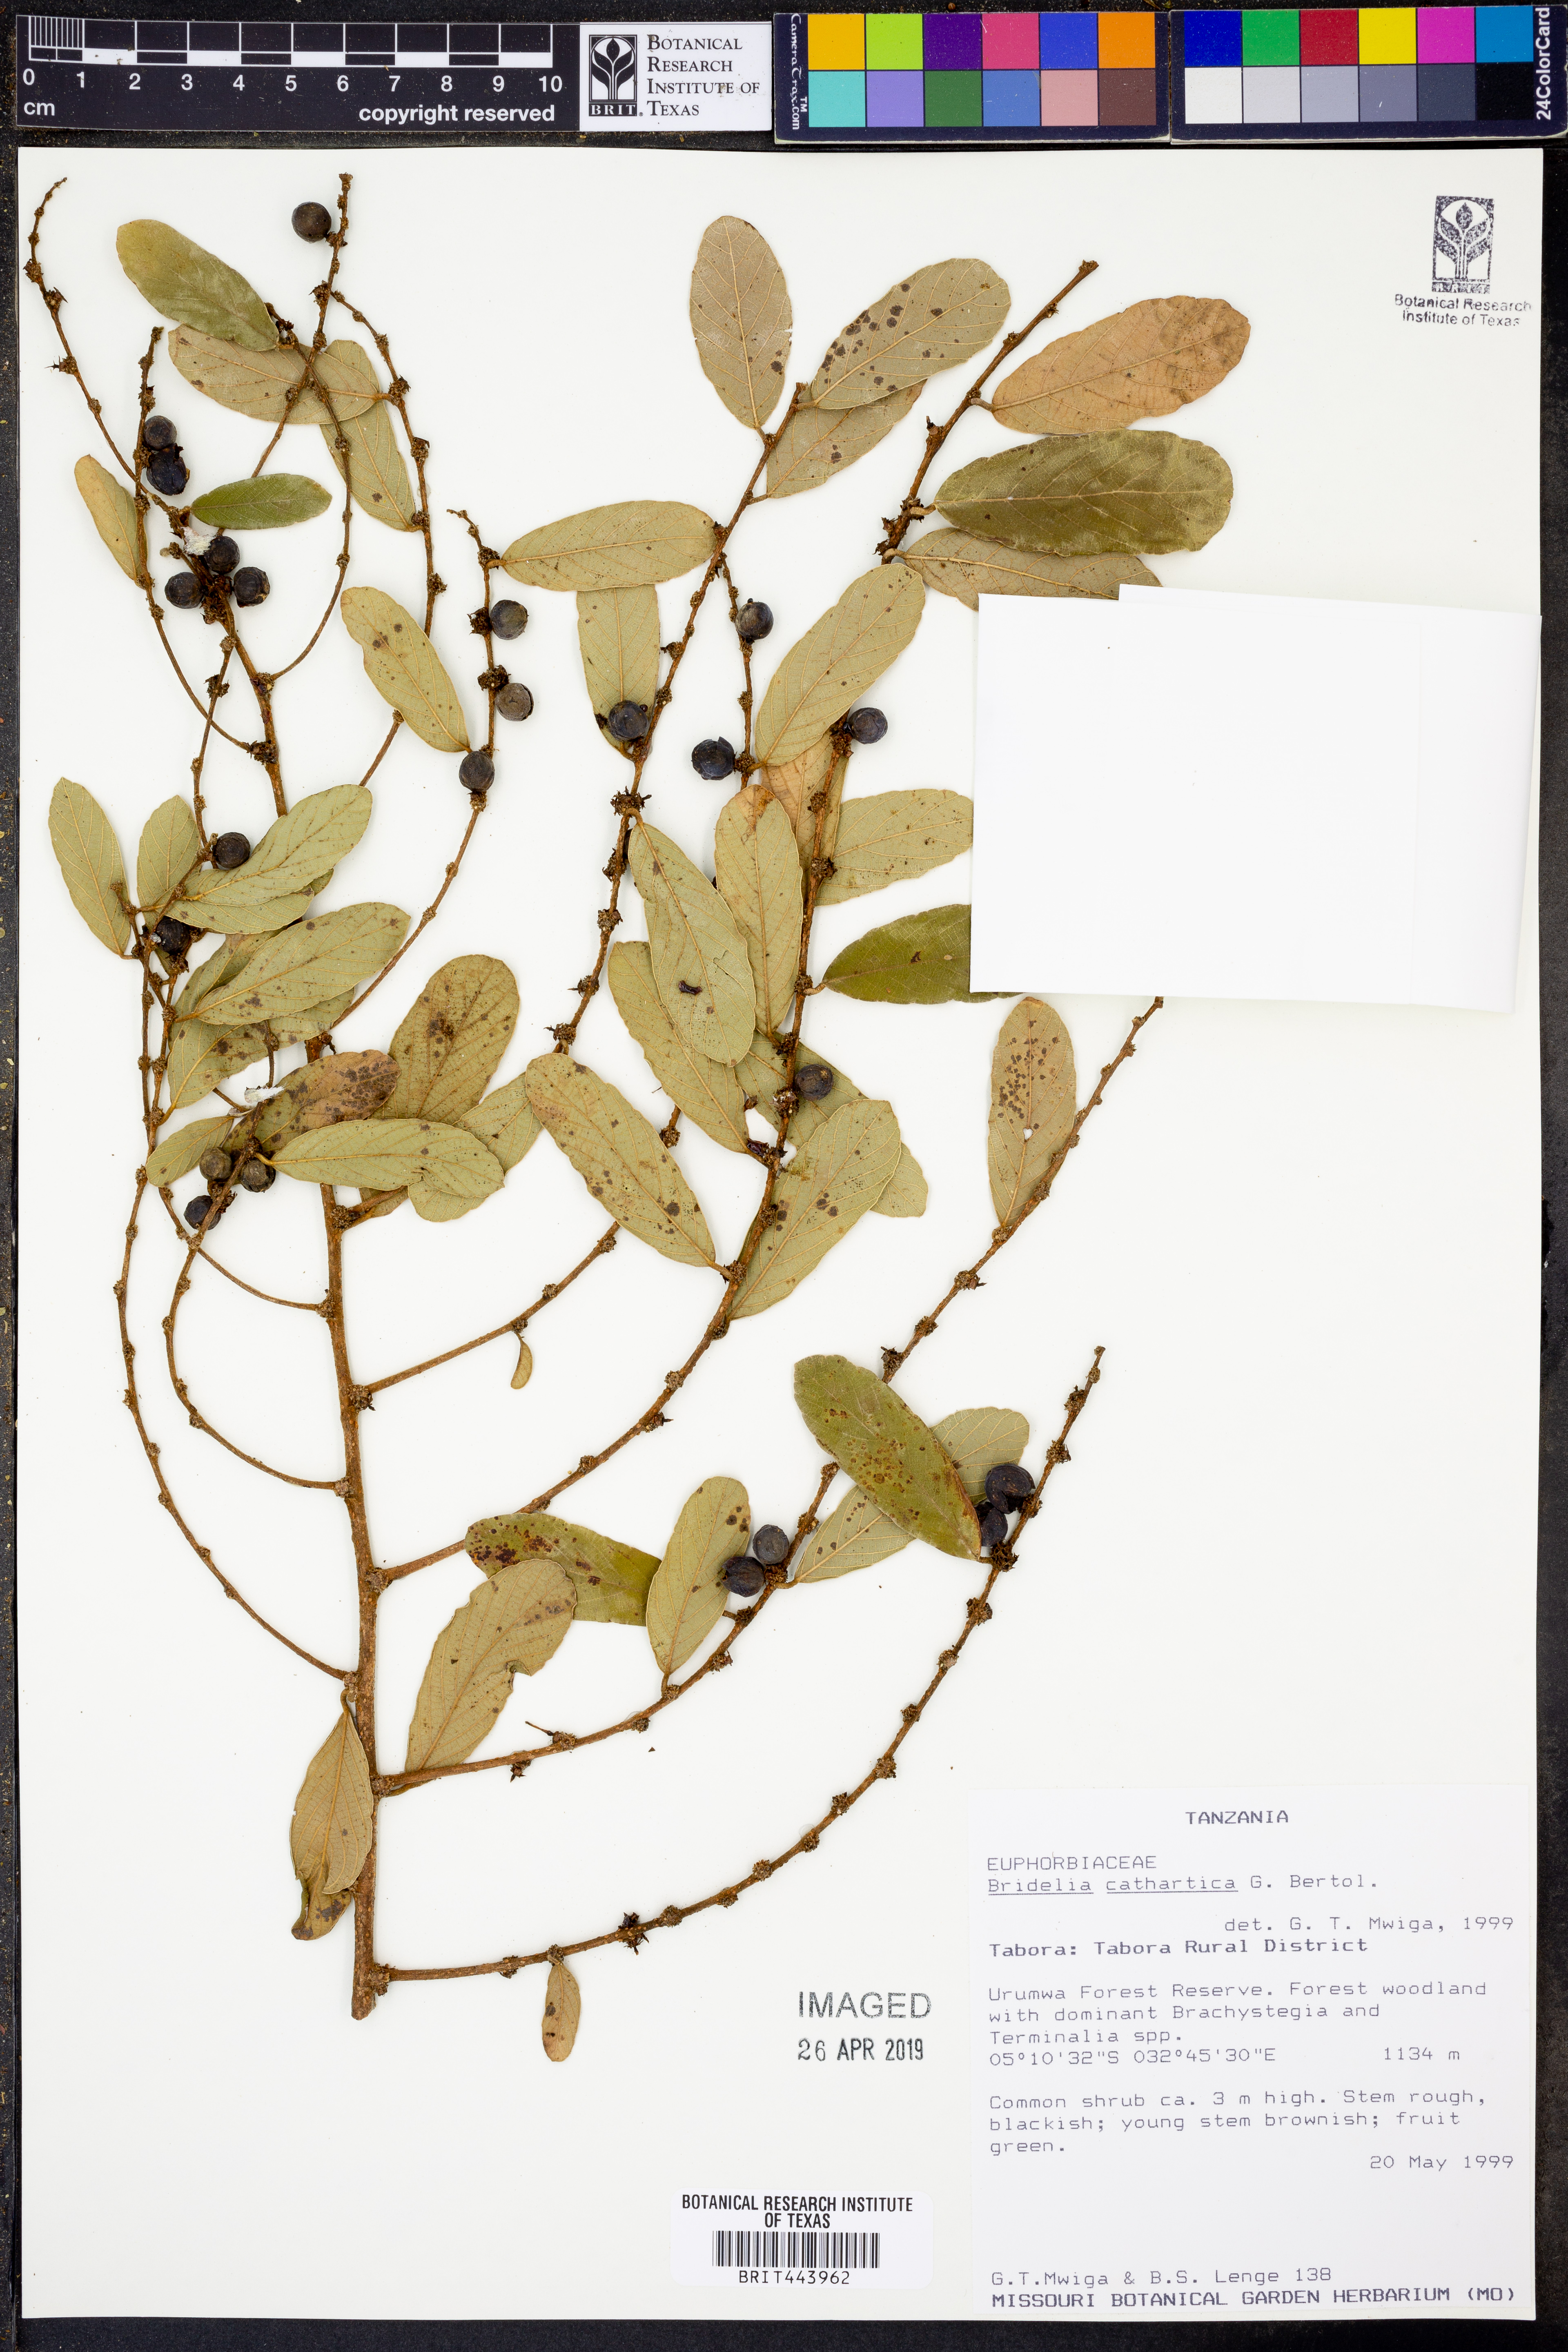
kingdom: Plantae
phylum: Tracheophyta
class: Magnoliopsida
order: Malpighiales
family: Phyllanthaceae
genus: Bridelia
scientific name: Bridelia cathartica
